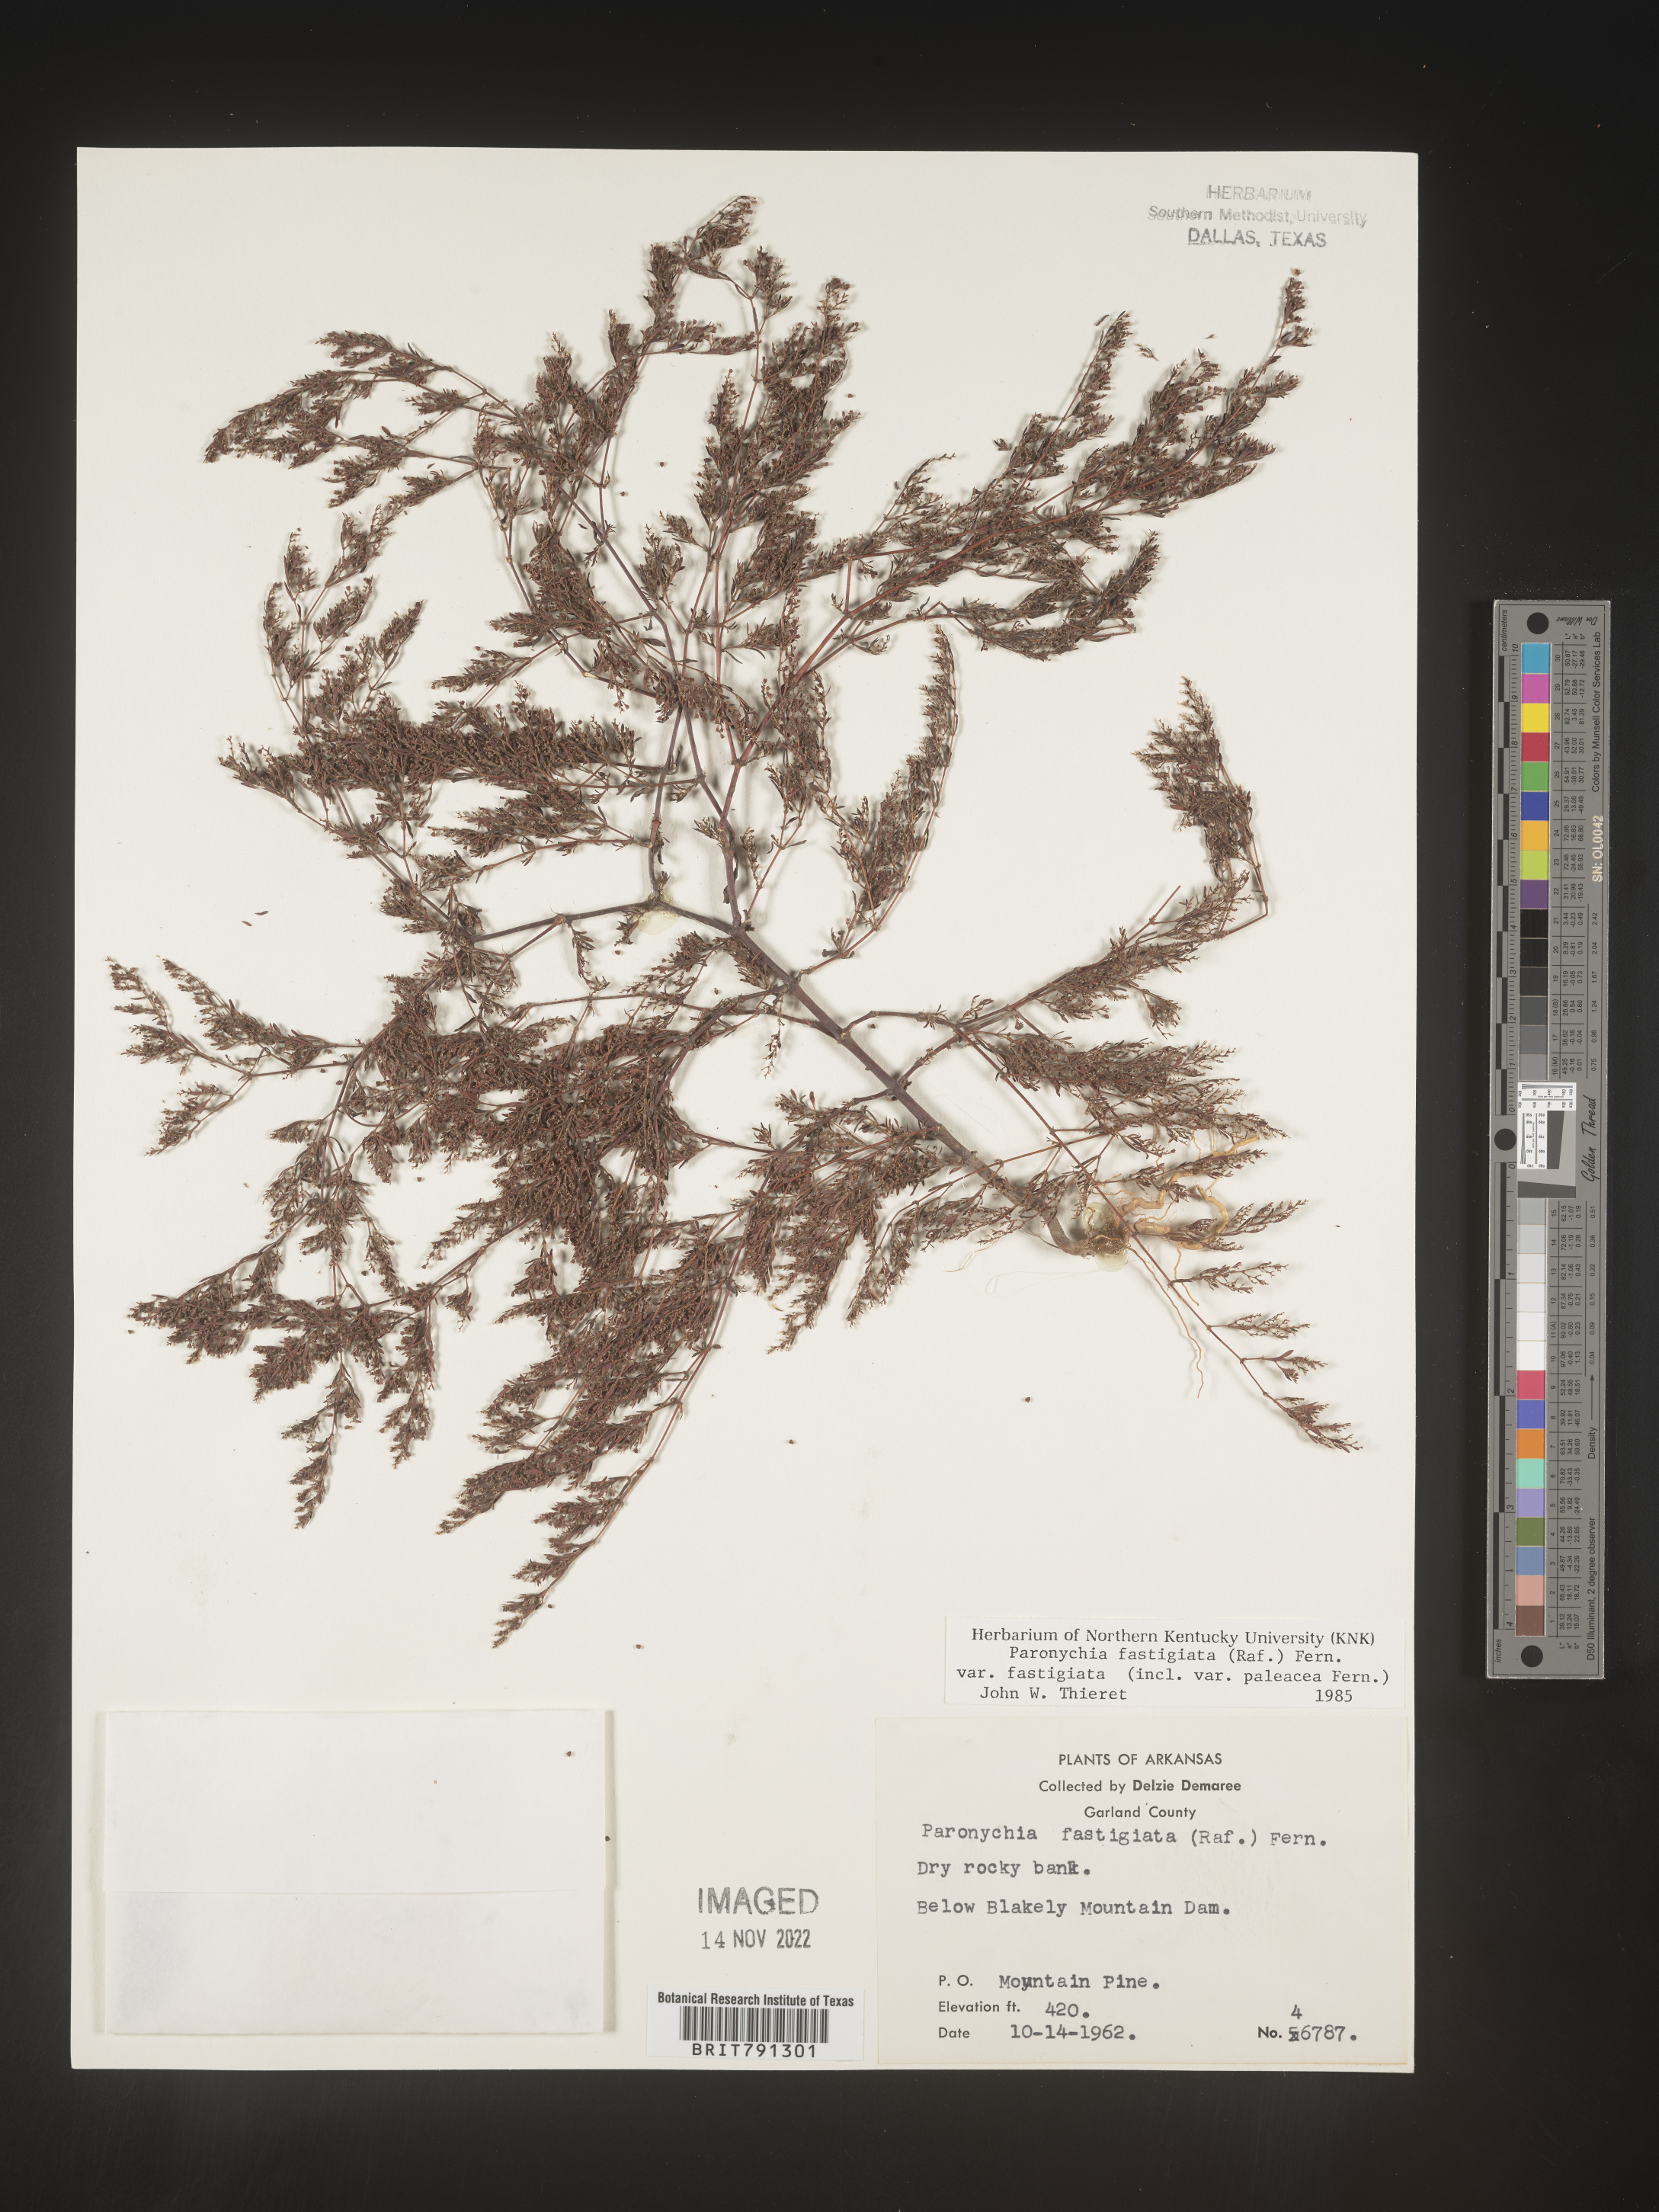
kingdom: Plantae
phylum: Tracheophyta
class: Magnoliopsida
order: Caryophyllales
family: Caryophyllaceae
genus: Paronychia
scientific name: Paronychia fastigiata
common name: Branching forked whitlow-wort
